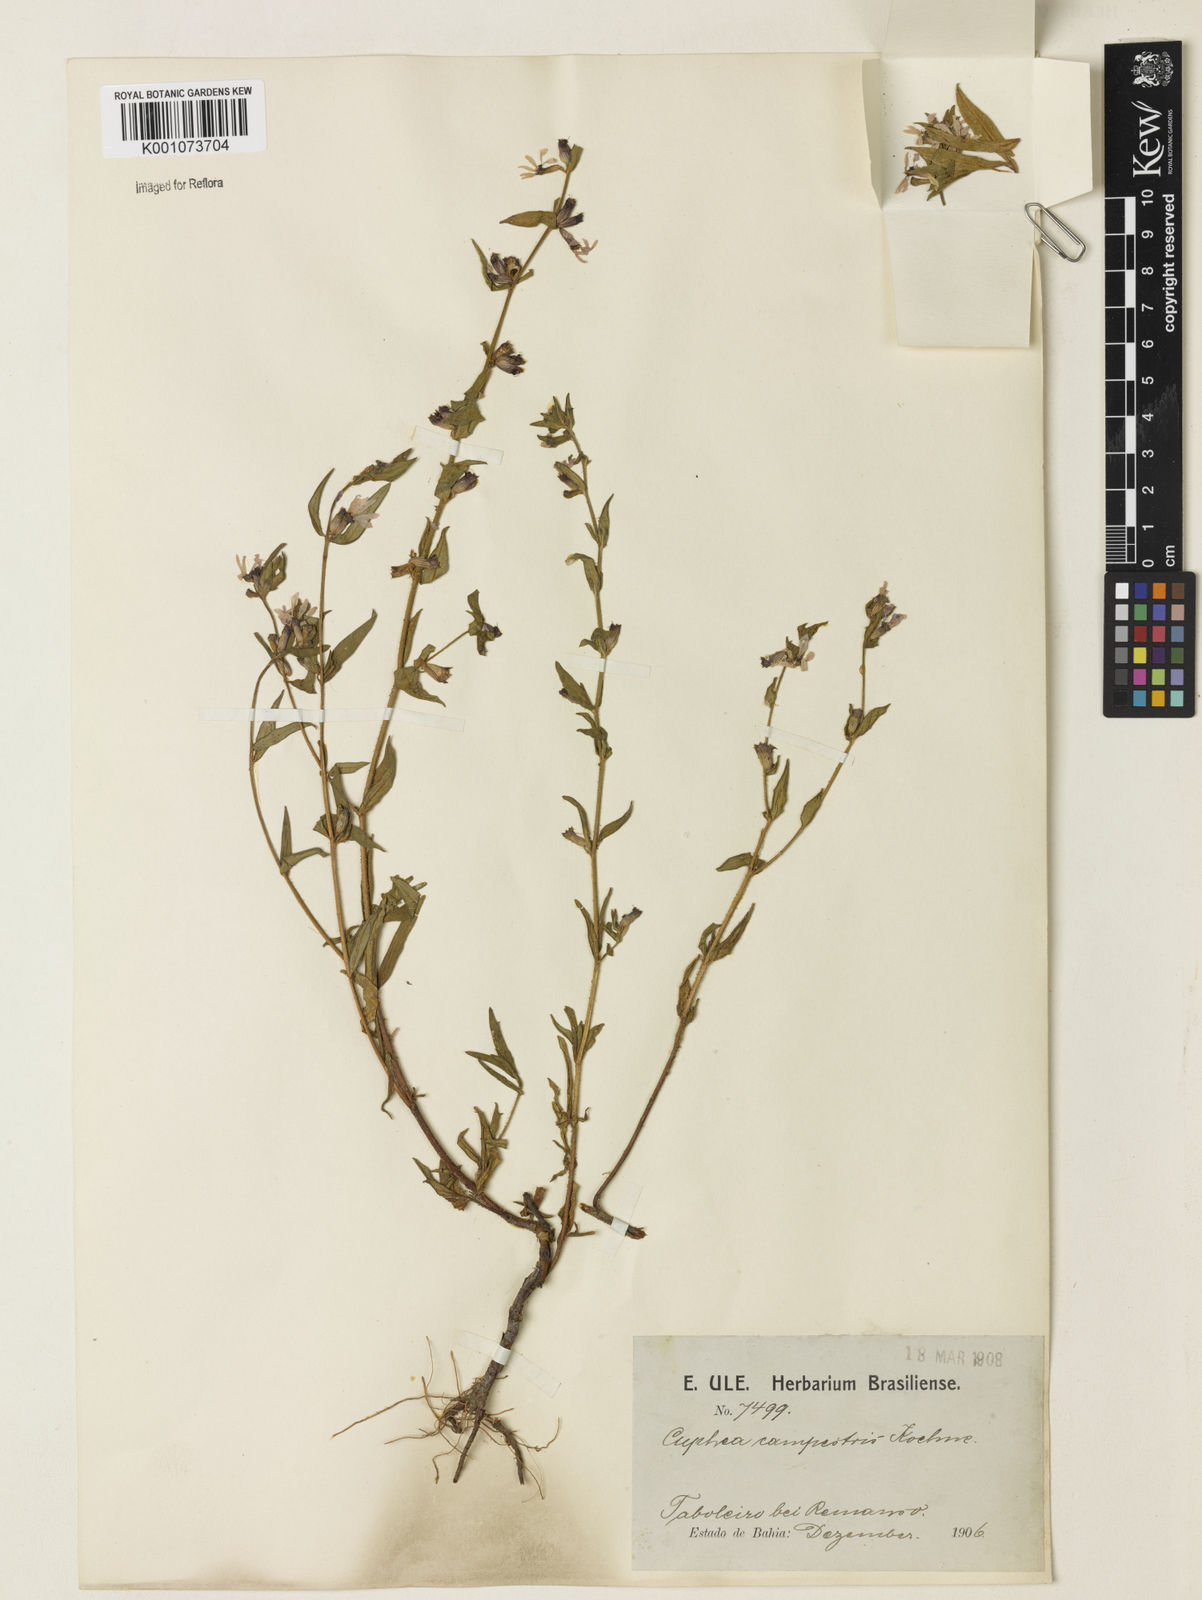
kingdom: Plantae
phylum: Tracheophyta
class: Magnoliopsida
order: Myrtales
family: Lythraceae
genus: Cuphea
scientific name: Cuphea campestris
